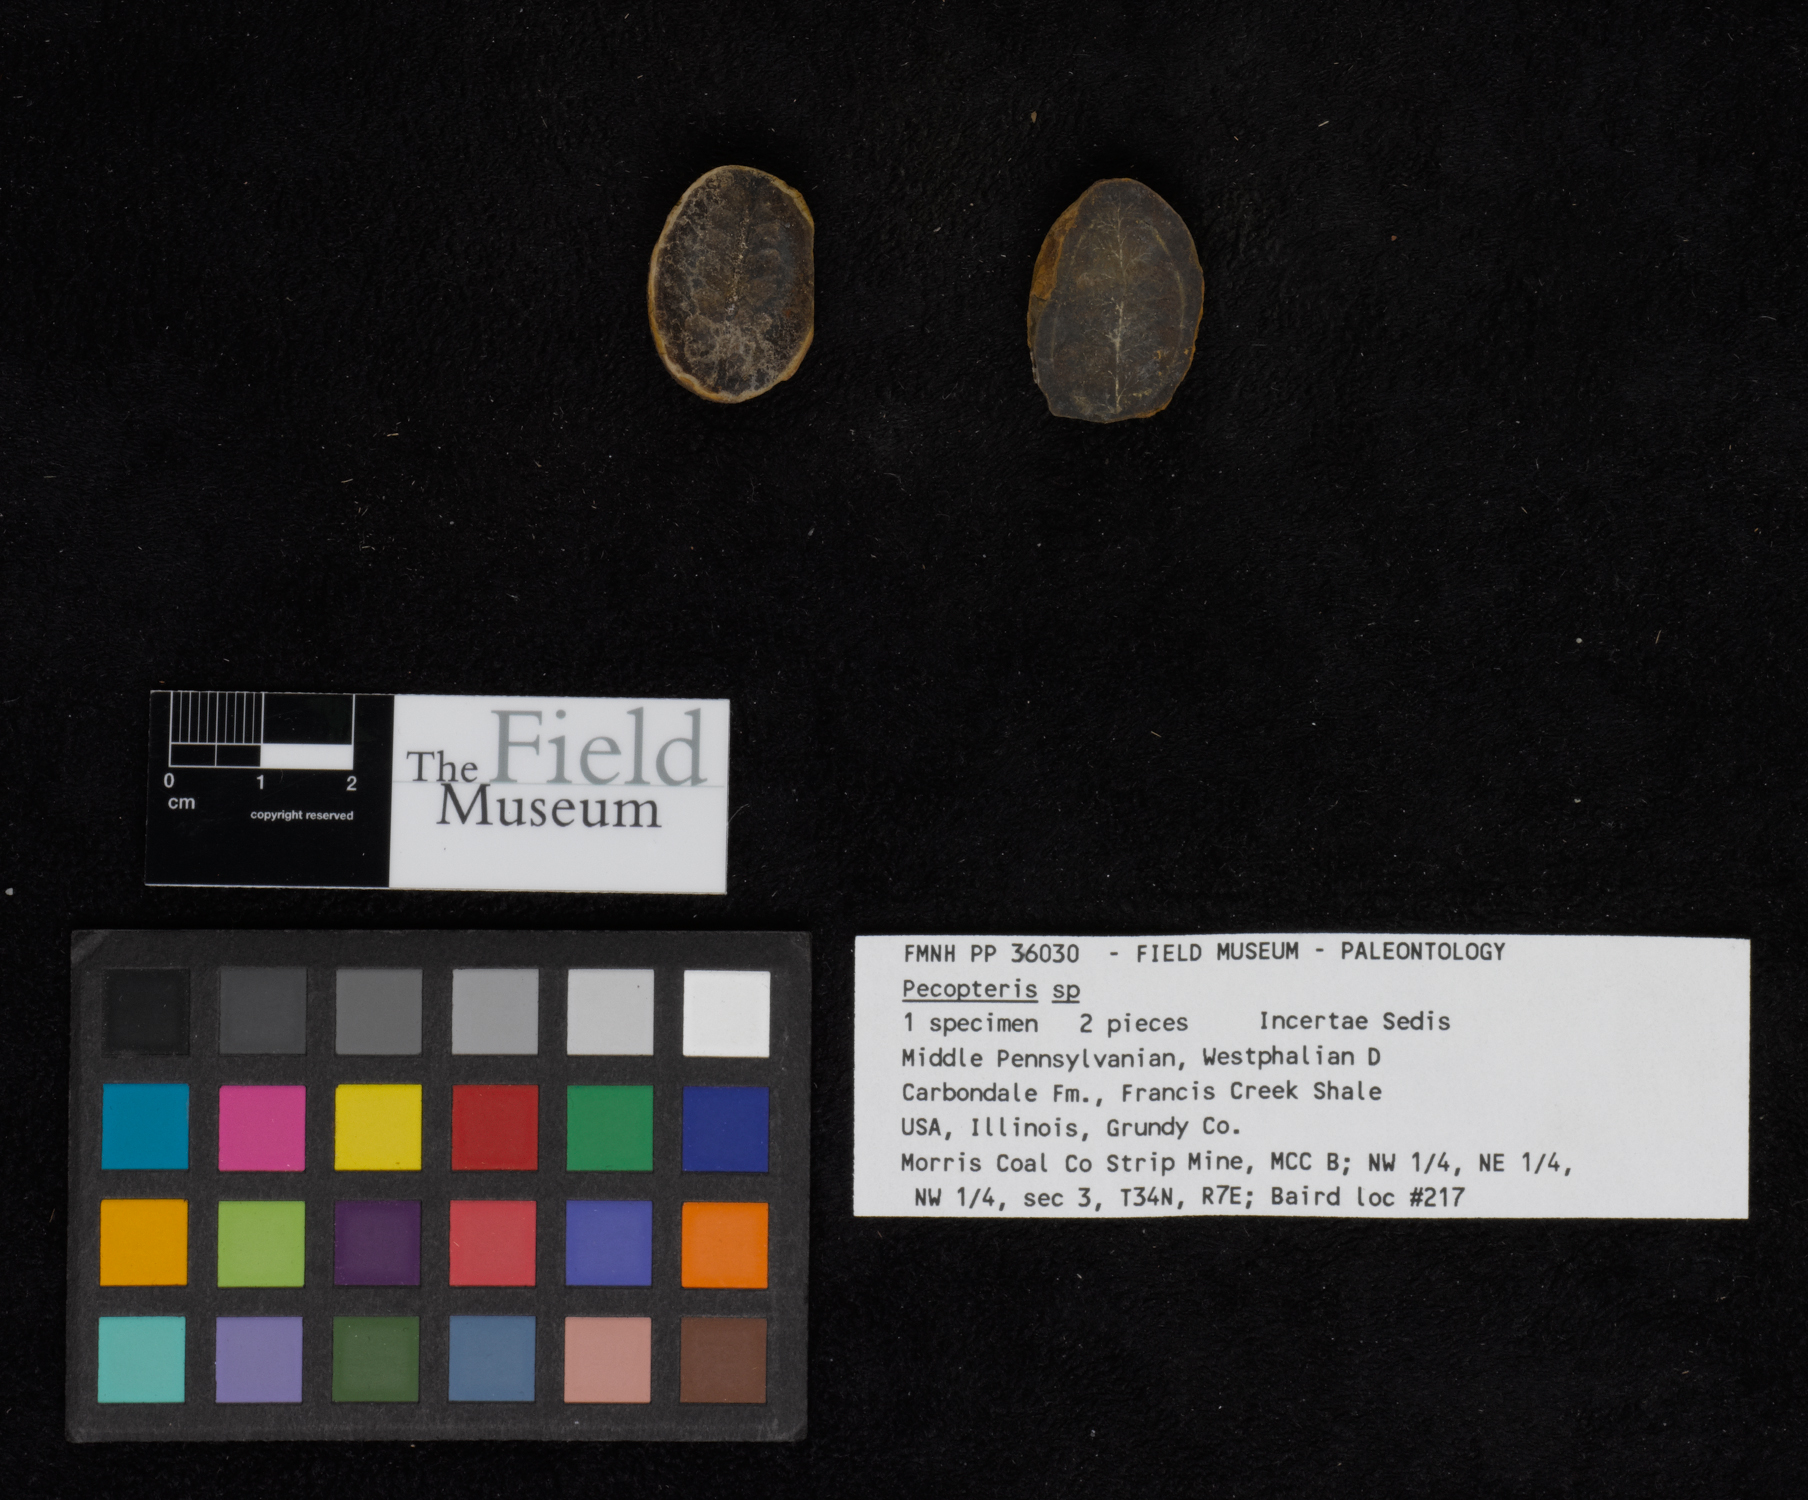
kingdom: Plantae
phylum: Tracheophyta
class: Polypodiopsida
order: Marattiales
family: Asterothecaceae
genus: Pecopteris
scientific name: Pecopteris
